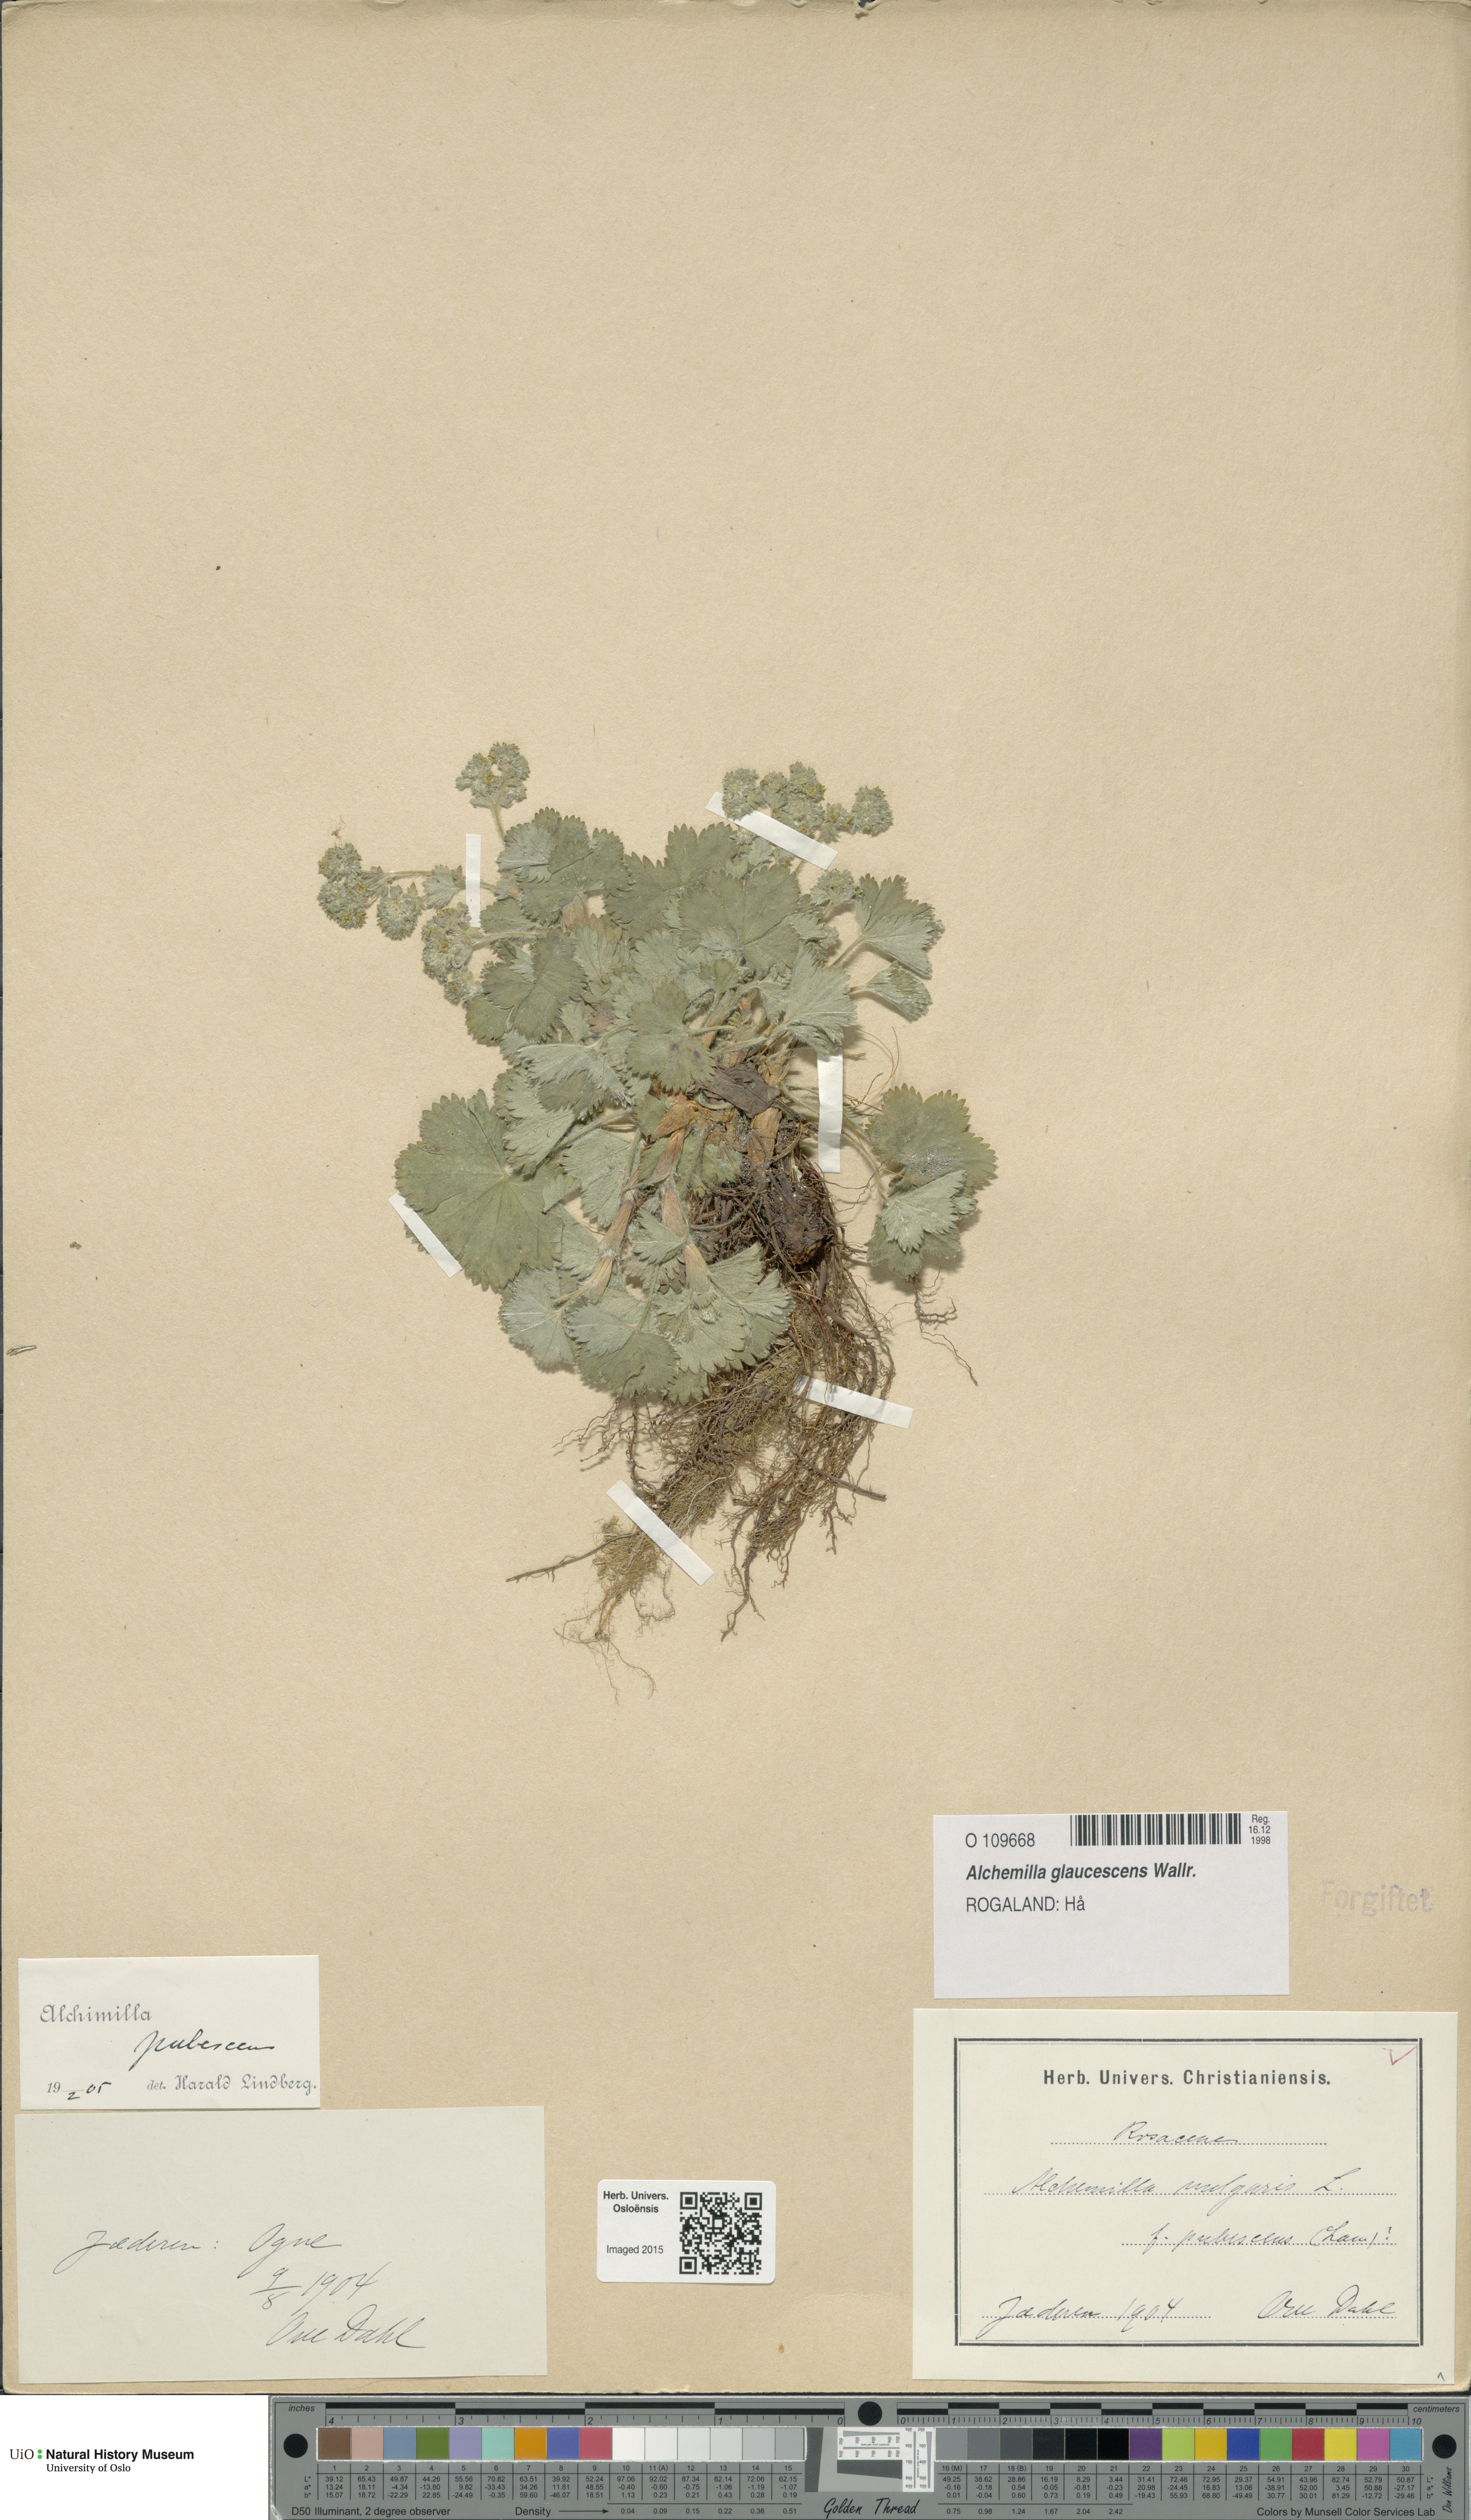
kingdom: Plantae
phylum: Tracheophyta
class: Magnoliopsida
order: Rosales
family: Rosaceae
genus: Alchemilla
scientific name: Alchemilla glaucescens
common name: Silky lady's mantle
